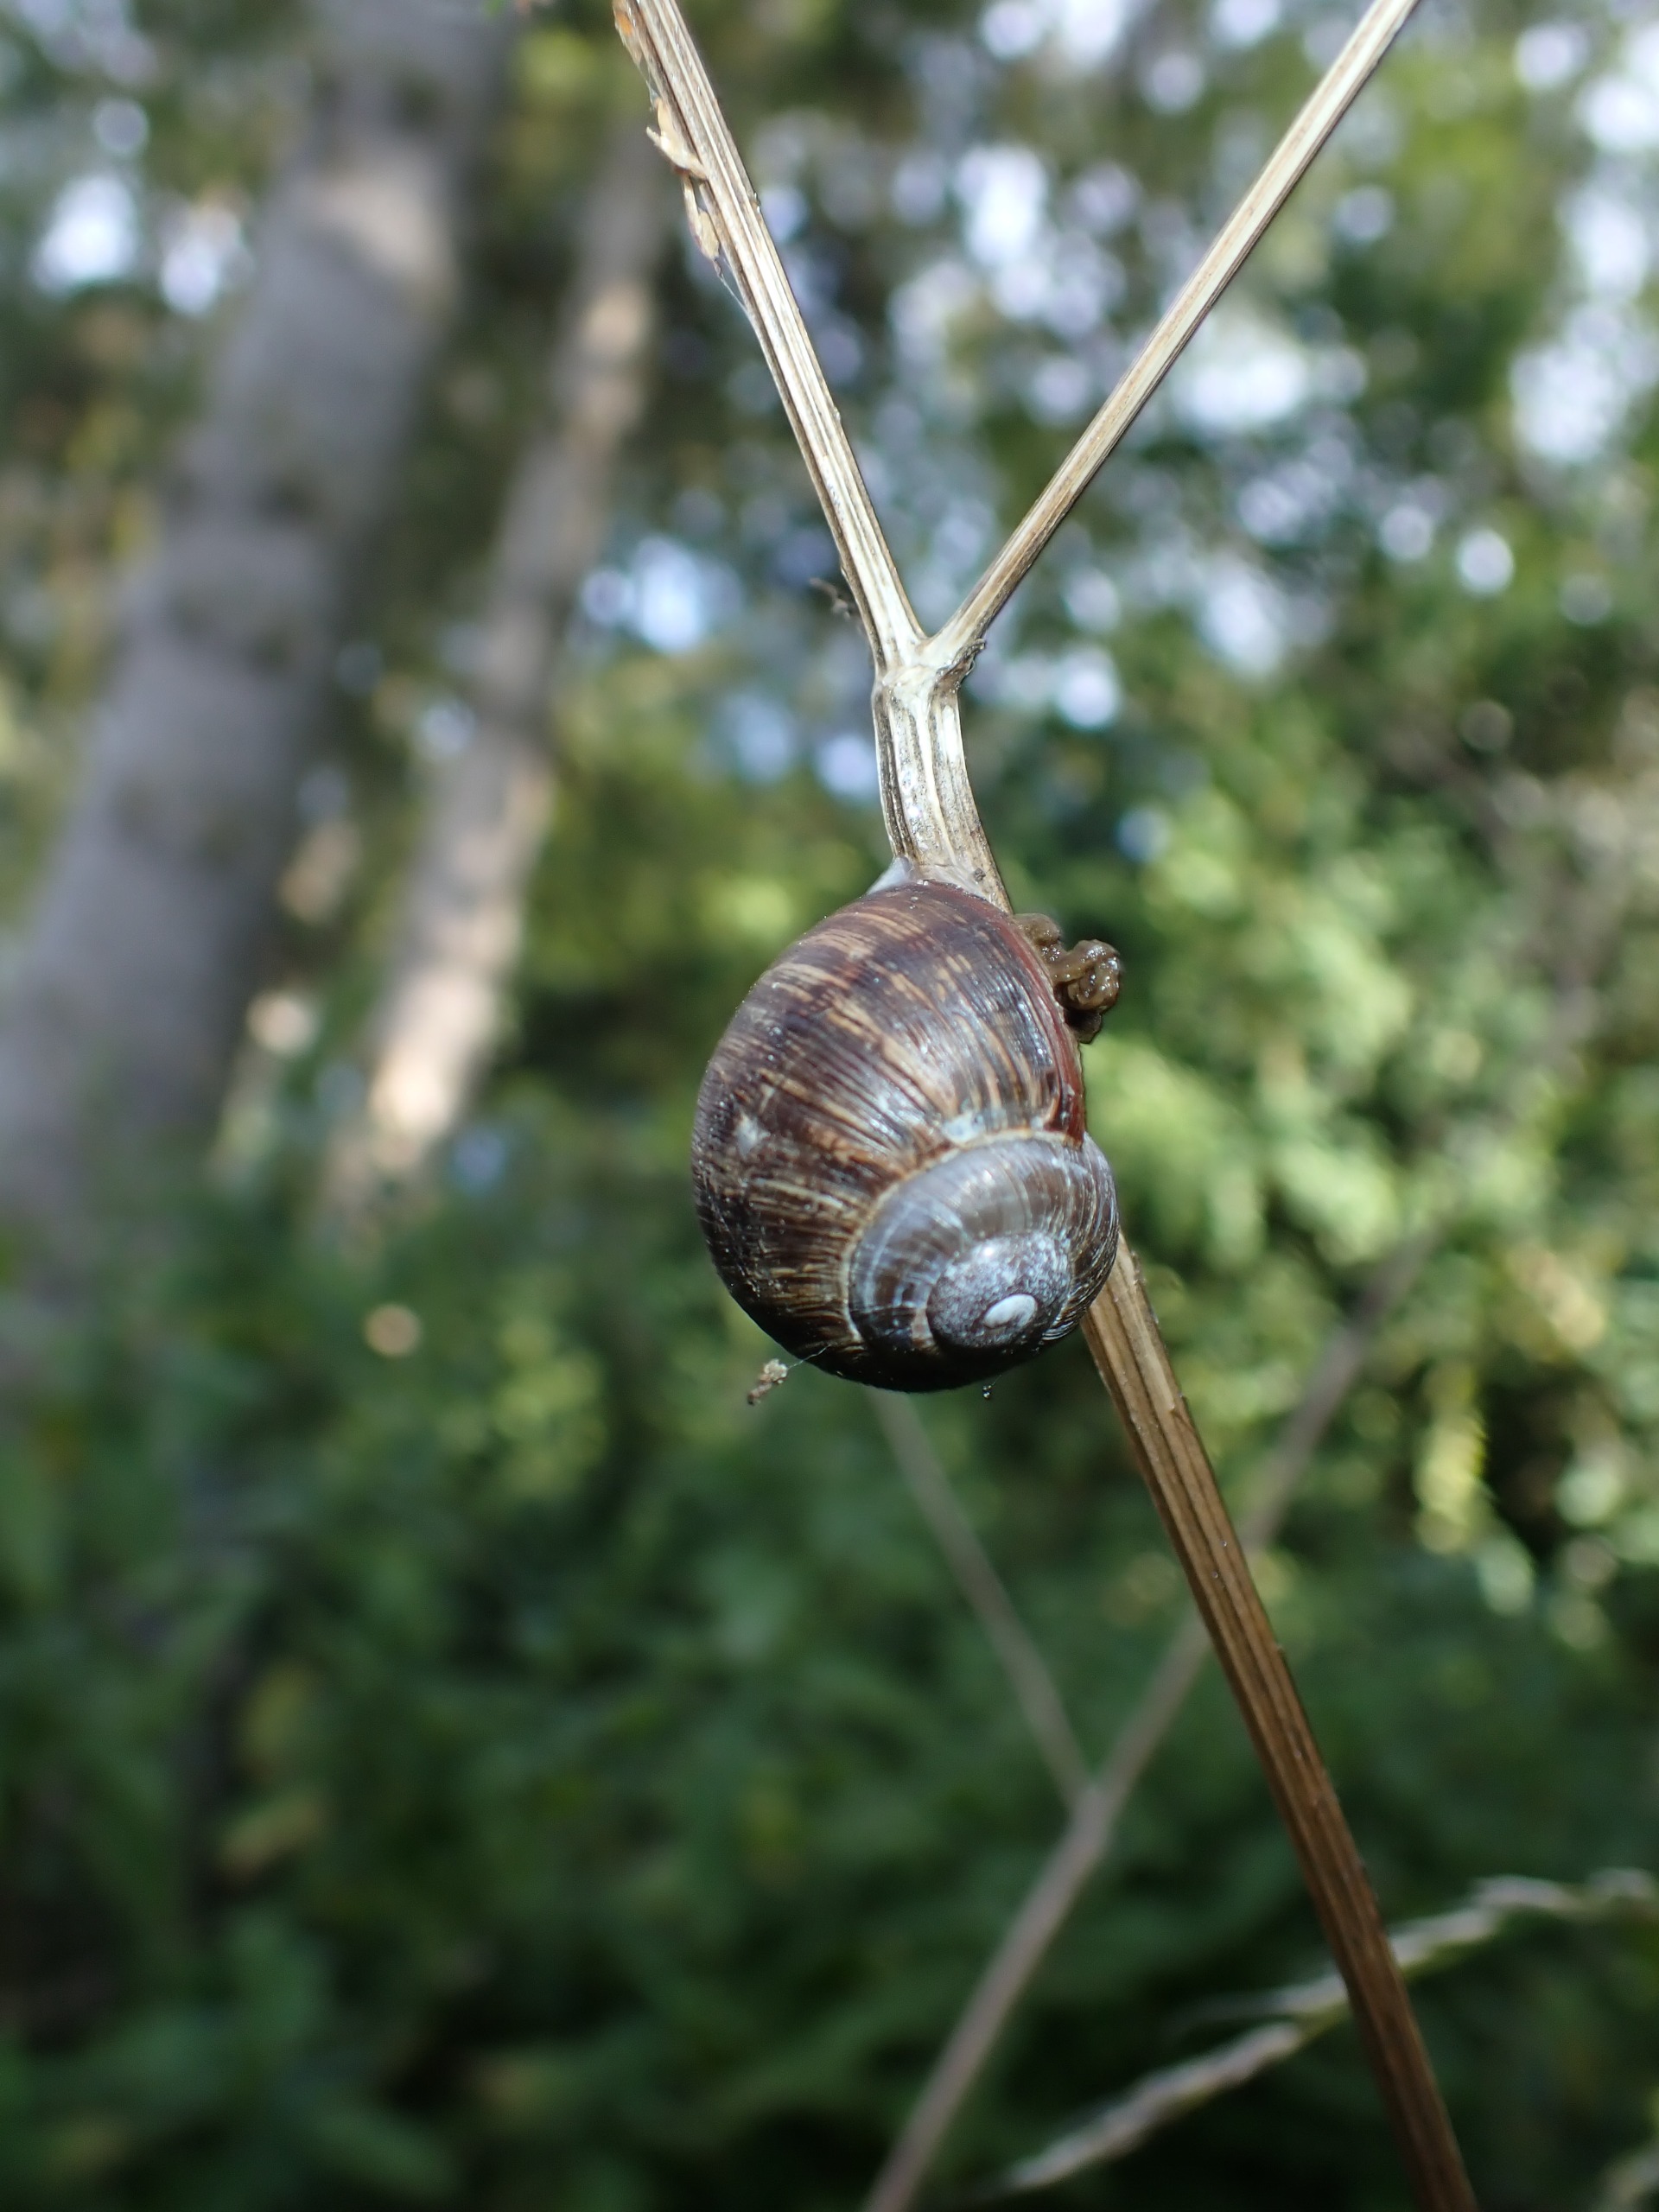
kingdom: Animalia
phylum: Mollusca
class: Gastropoda
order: Stylommatophora
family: Helicidae
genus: Helix
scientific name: Helix pomatia
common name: Vinbjergsnegl
